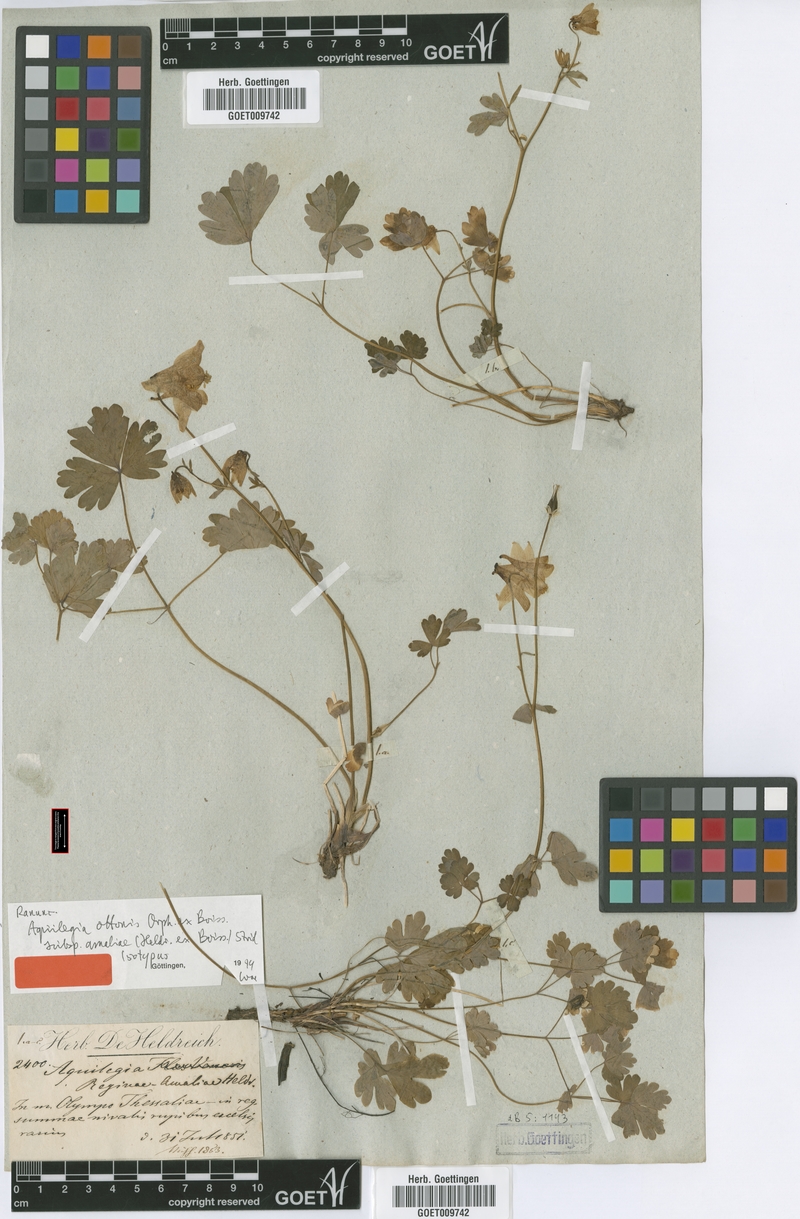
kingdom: Plantae
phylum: Tracheophyta
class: Magnoliopsida
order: Ranunculales
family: Ranunculaceae
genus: Aquilegia
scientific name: Aquilegia ottonis
